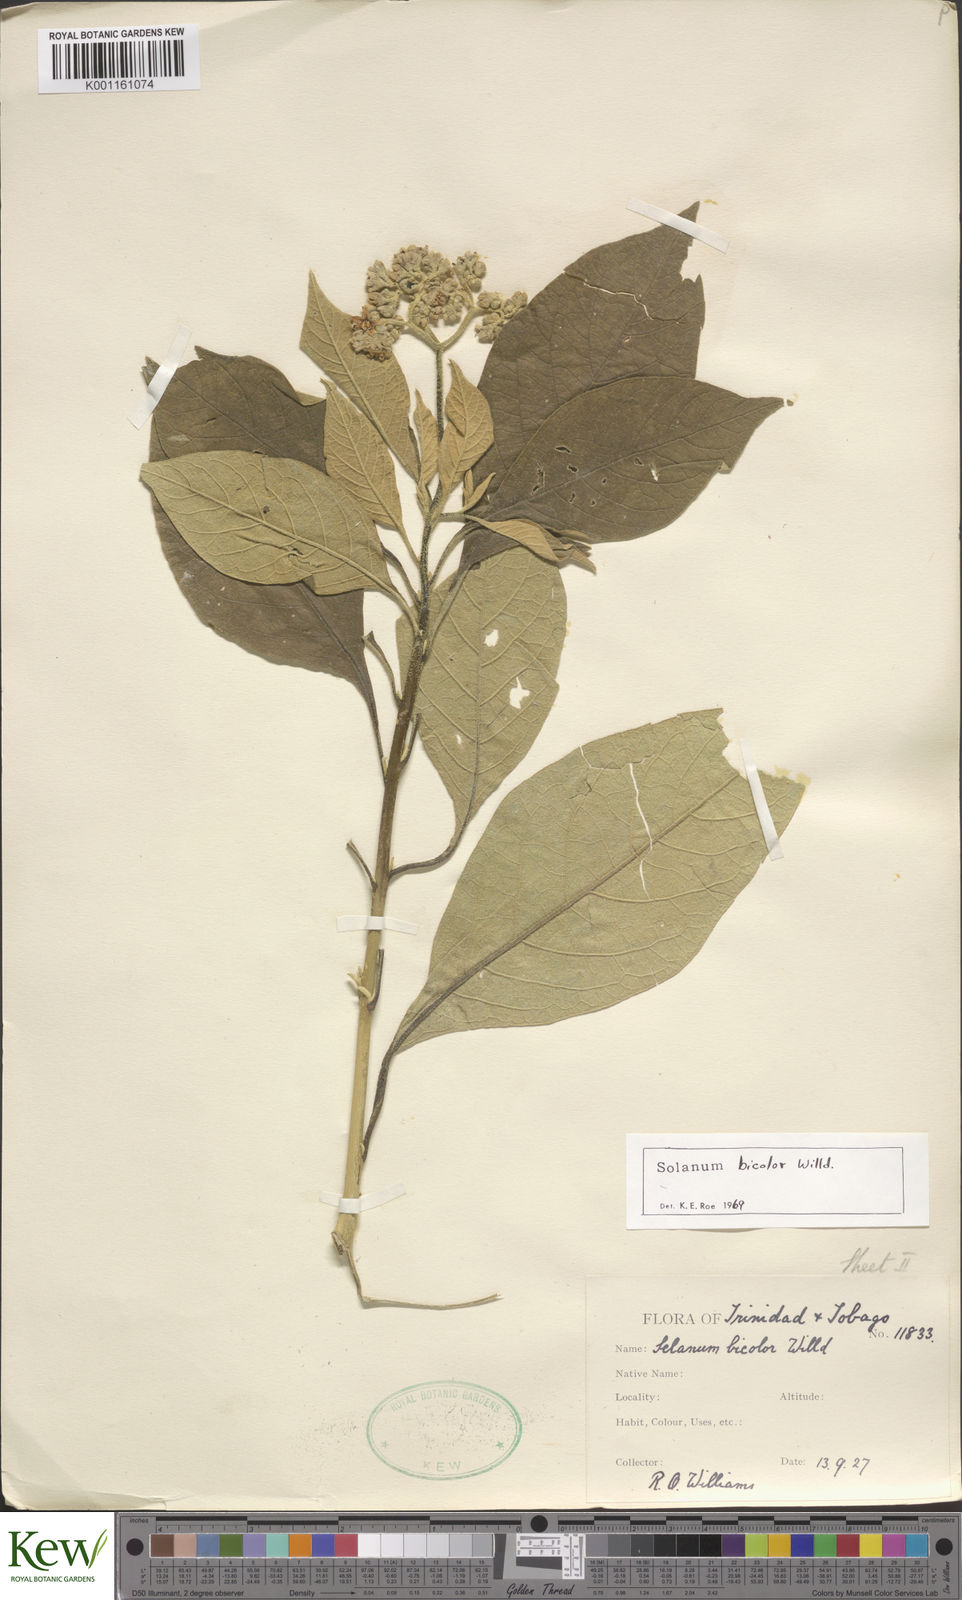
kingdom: Plantae
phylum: Tracheophyta
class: Magnoliopsida
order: Solanales
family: Solanaceae
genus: Solanum
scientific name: Solanum bicolor
